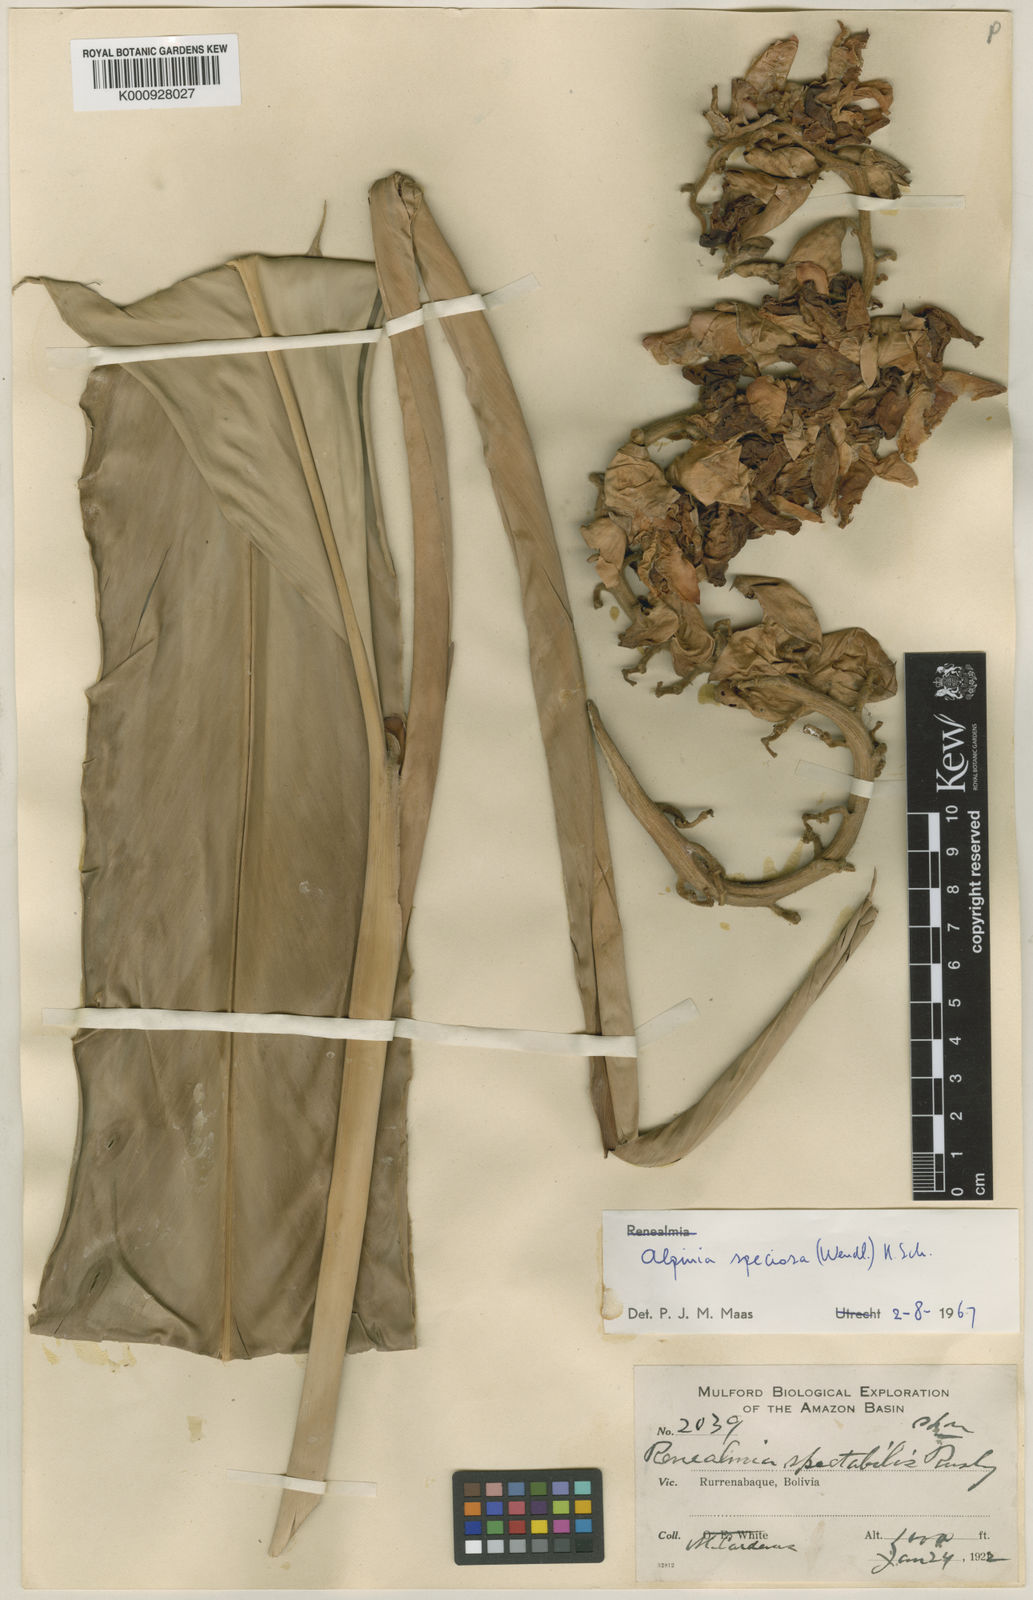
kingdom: Plantae
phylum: Tracheophyta
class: Liliopsida
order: Zingiberales
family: Zingiberaceae
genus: Alpinia
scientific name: Alpinia zerumbet
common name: Shellplant
